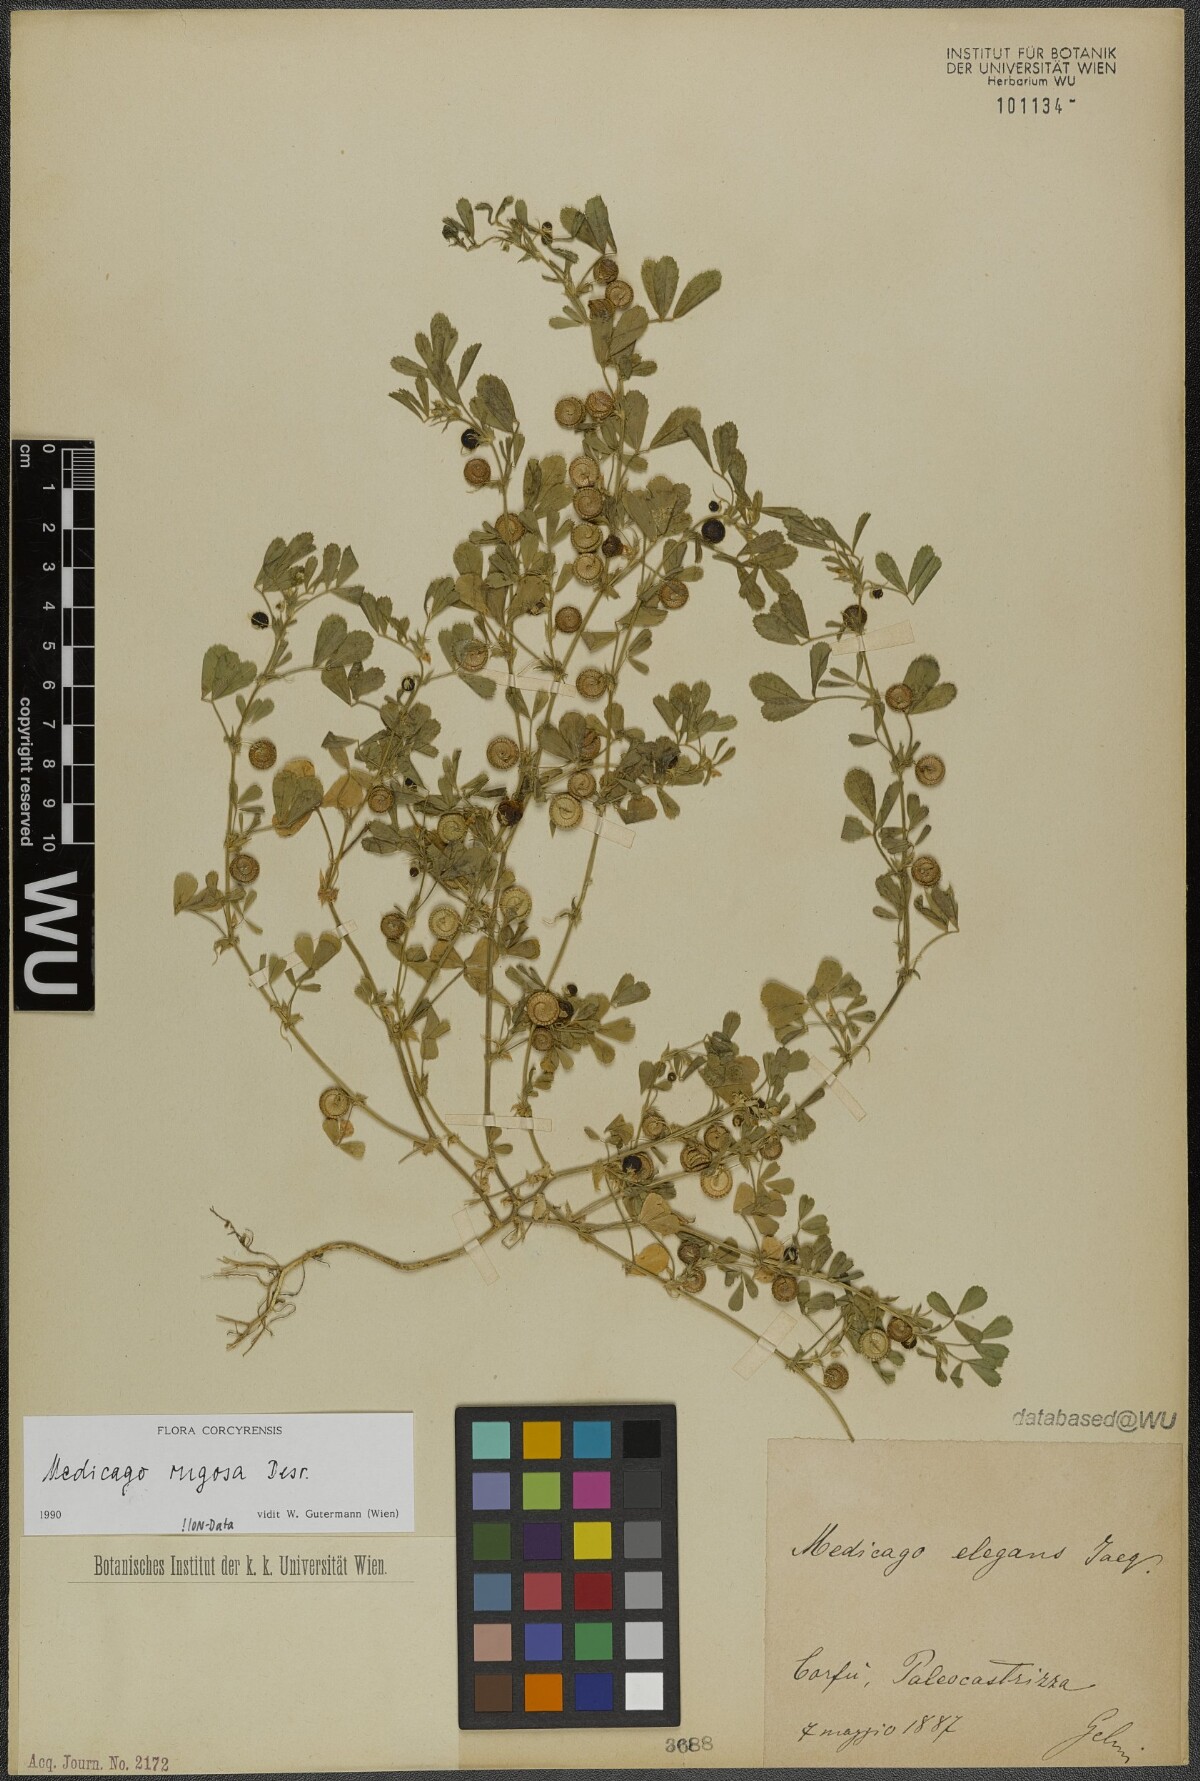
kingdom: Plantae
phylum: Tracheophyta
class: Magnoliopsida
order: Fabales
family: Fabaceae
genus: Medicago
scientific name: Medicago rugosa
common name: Gama medic
